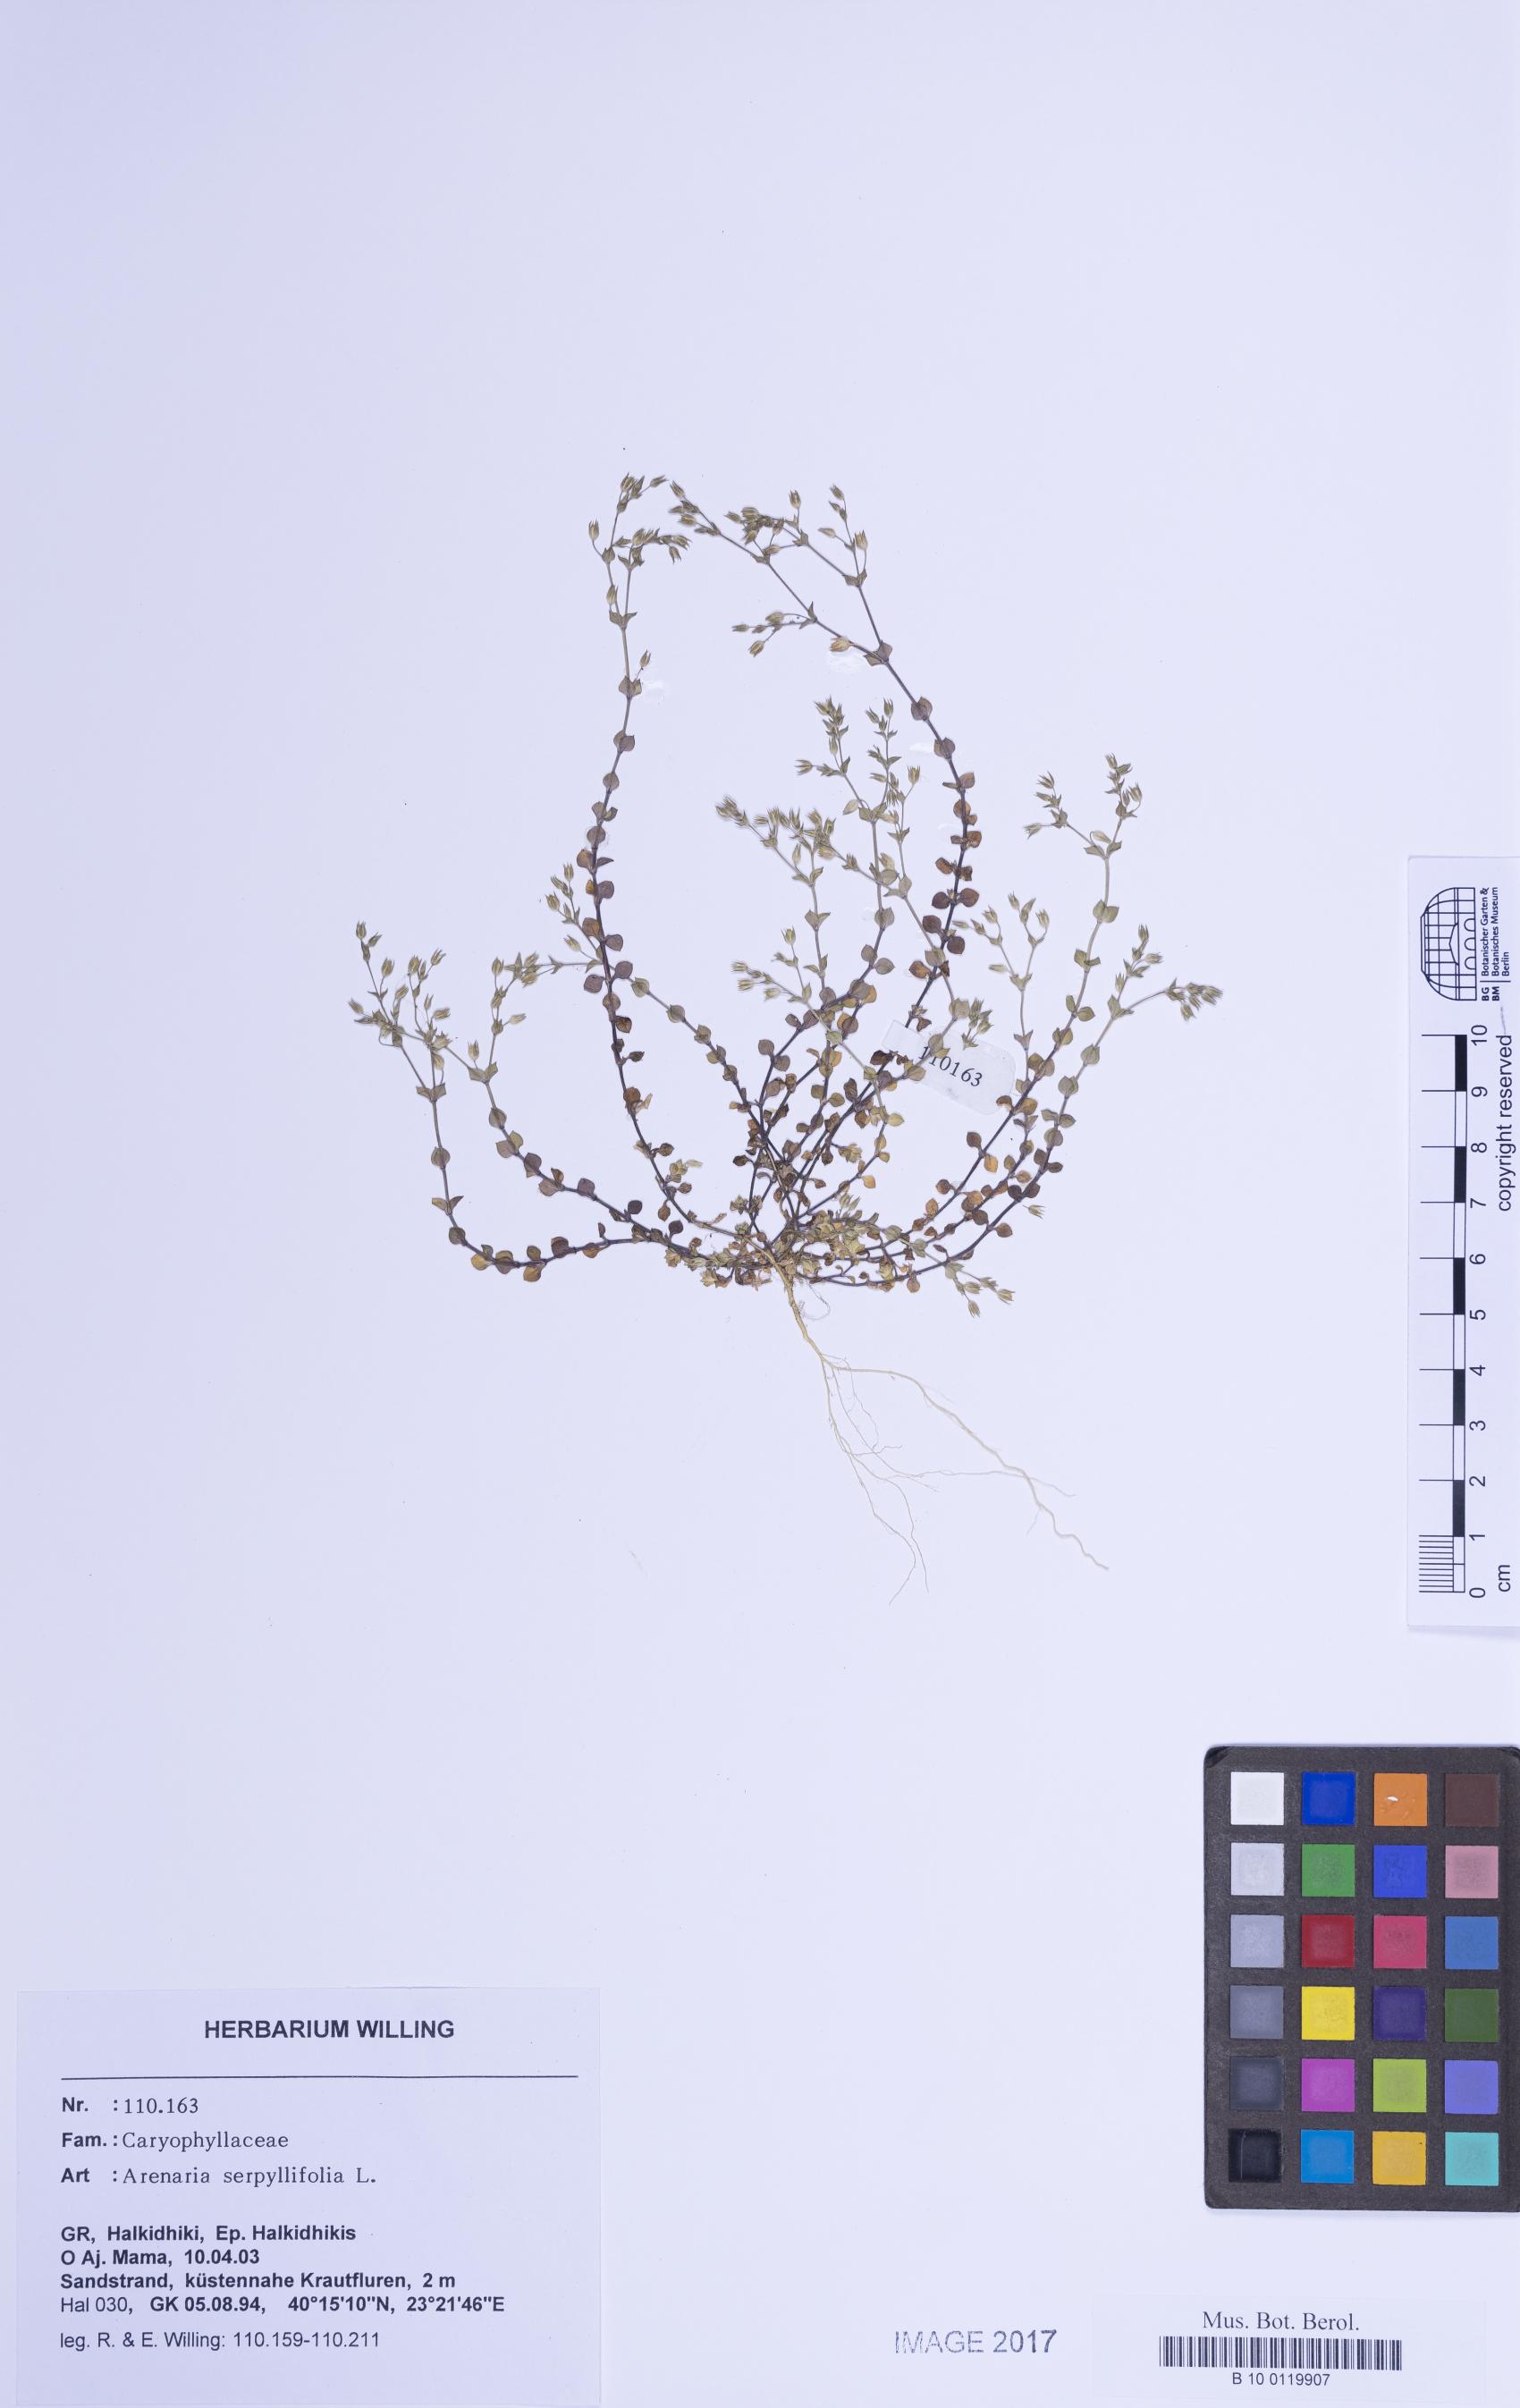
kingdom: Plantae
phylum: Tracheophyta
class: Magnoliopsida
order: Caryophyllales
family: Caryophyllaceae
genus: Arenaria
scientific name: Arenaria serpyllifolia
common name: Thyme-leaved sandwort
